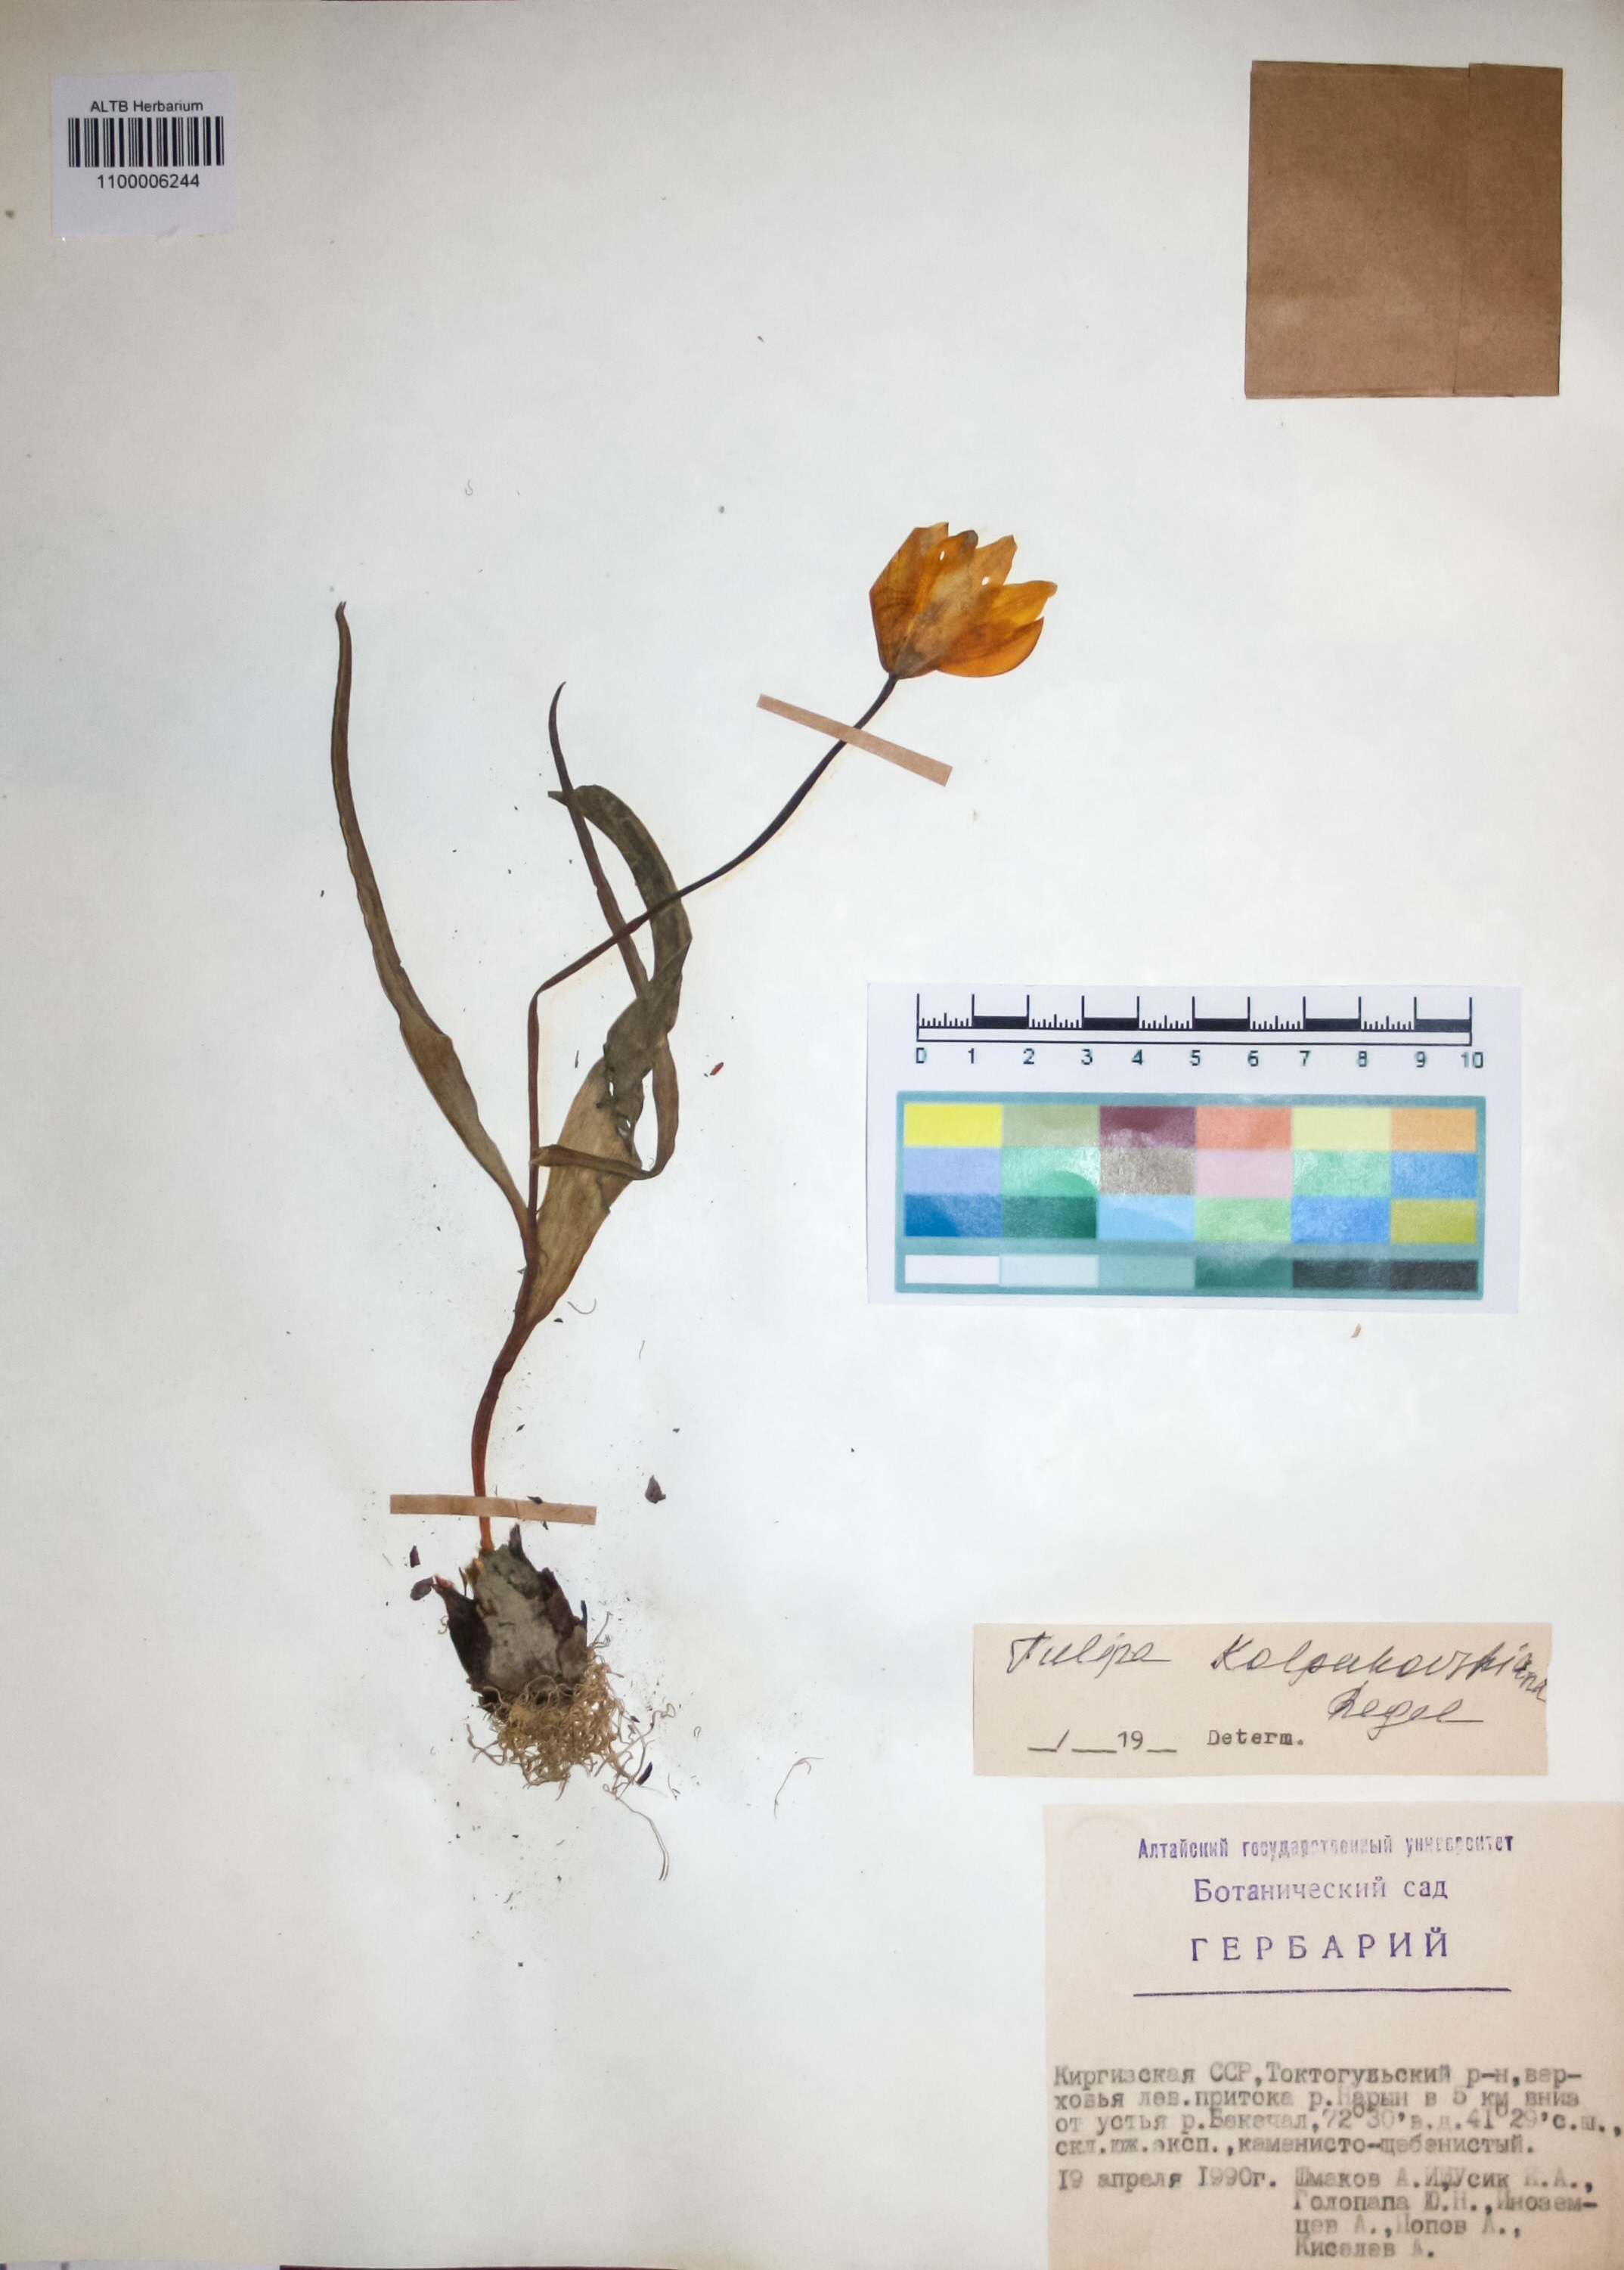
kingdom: Plantae
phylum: Tracheophyta
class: Liliopsida
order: Liliales
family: Liliaceae
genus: Tulipa
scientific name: Tulipa kolpakowskiana
